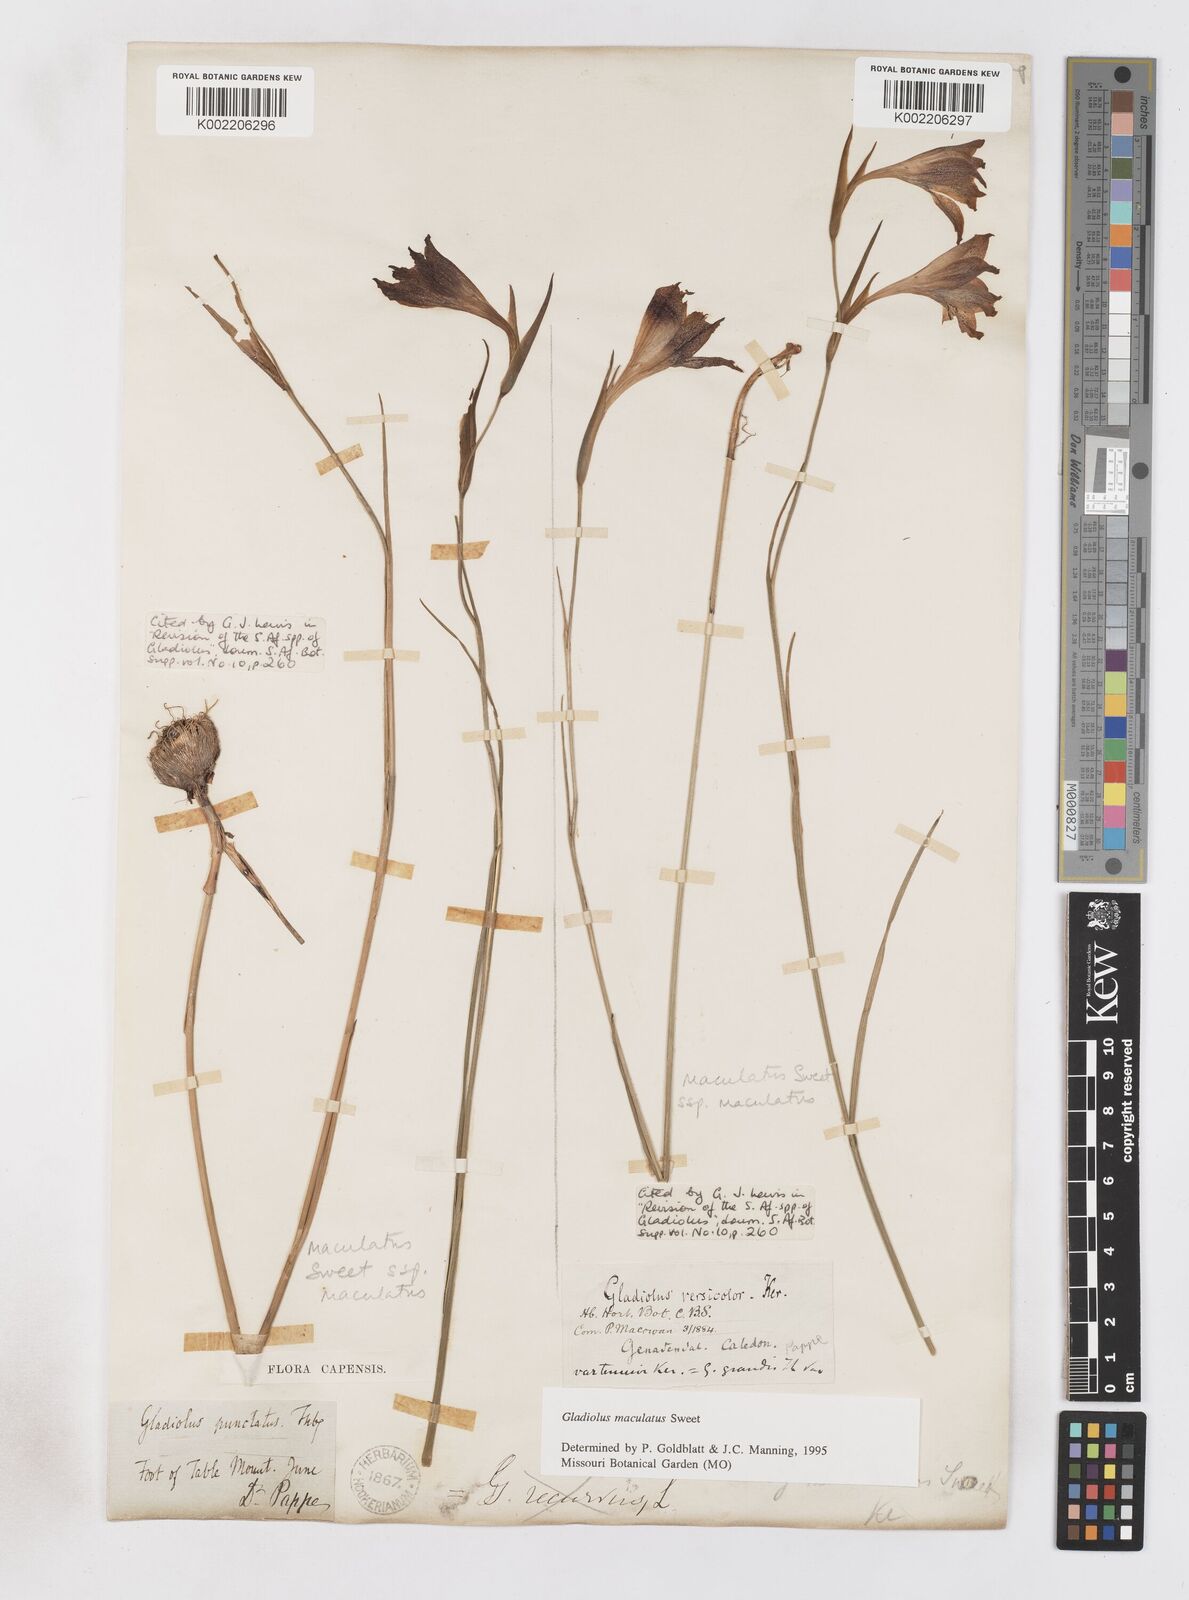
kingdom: Plantae
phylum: Tracheophyta
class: Liliopsida
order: Asparagales
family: Iridaceae
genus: Gladiolus
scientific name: Gladiolus maculatus
